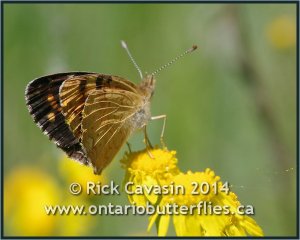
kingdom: Animalia
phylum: Arthropoda
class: Insecta
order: Lepidoptera
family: Nymphalidae
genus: Phyciodes
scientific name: Phyciodes batesii
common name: Tawny Crescent
